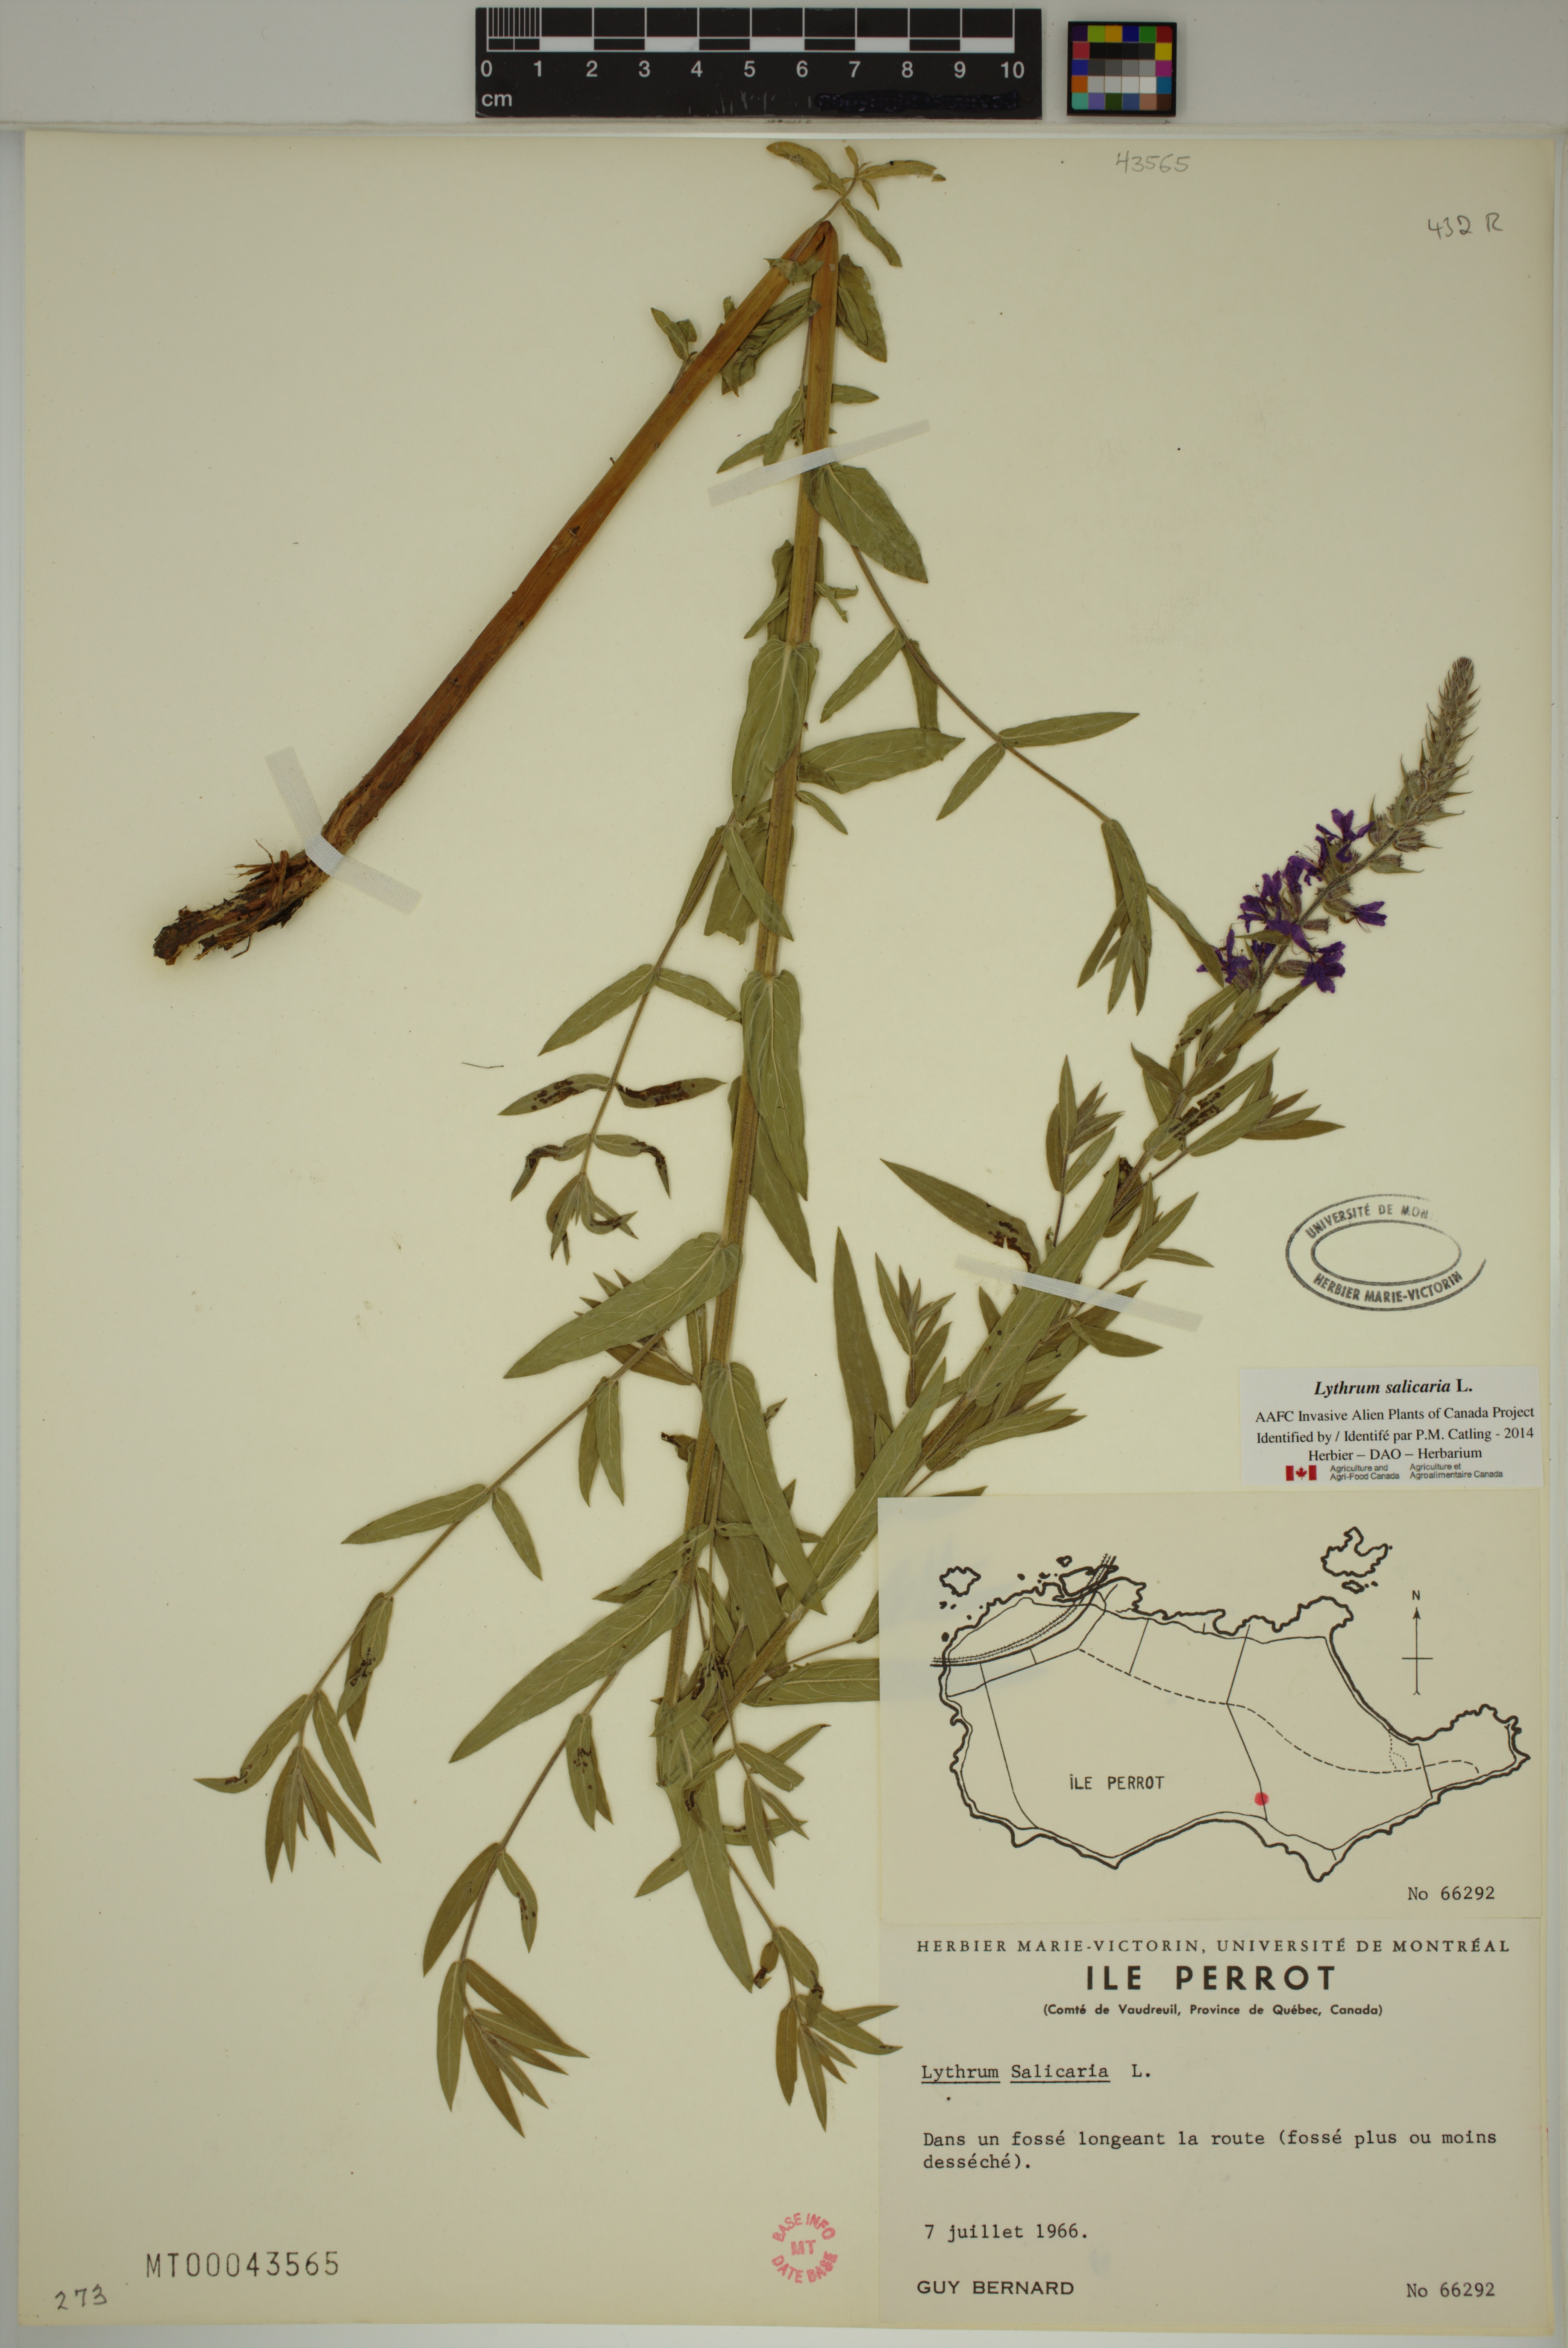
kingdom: Plantae
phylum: Tracheophyta
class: Magnoliopsida
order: Myrtales
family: Lythraceae
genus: Lythrum
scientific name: Lythrum salicaria
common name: Purple loosestrife
